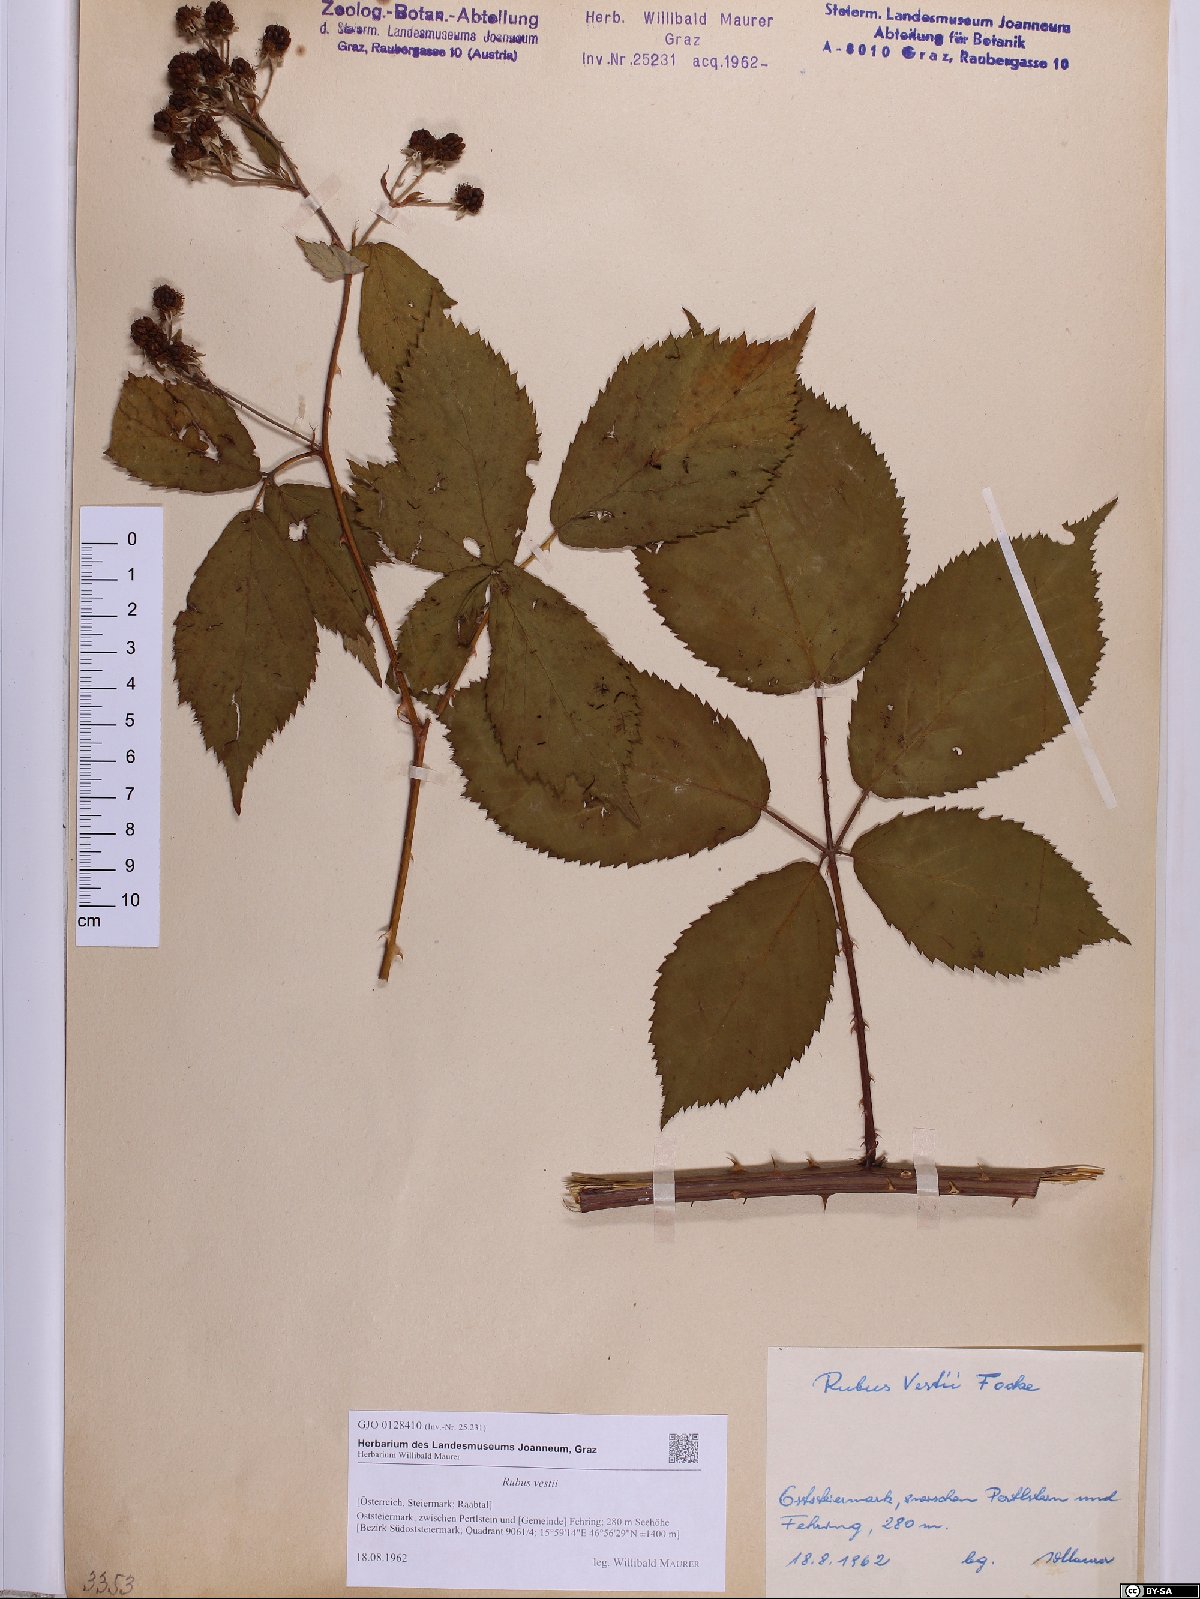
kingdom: Plantae
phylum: Tracheophyta
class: Magnoliopsida
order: Rosales
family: Rosaceae
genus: Rubus
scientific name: Rubus constrictus
